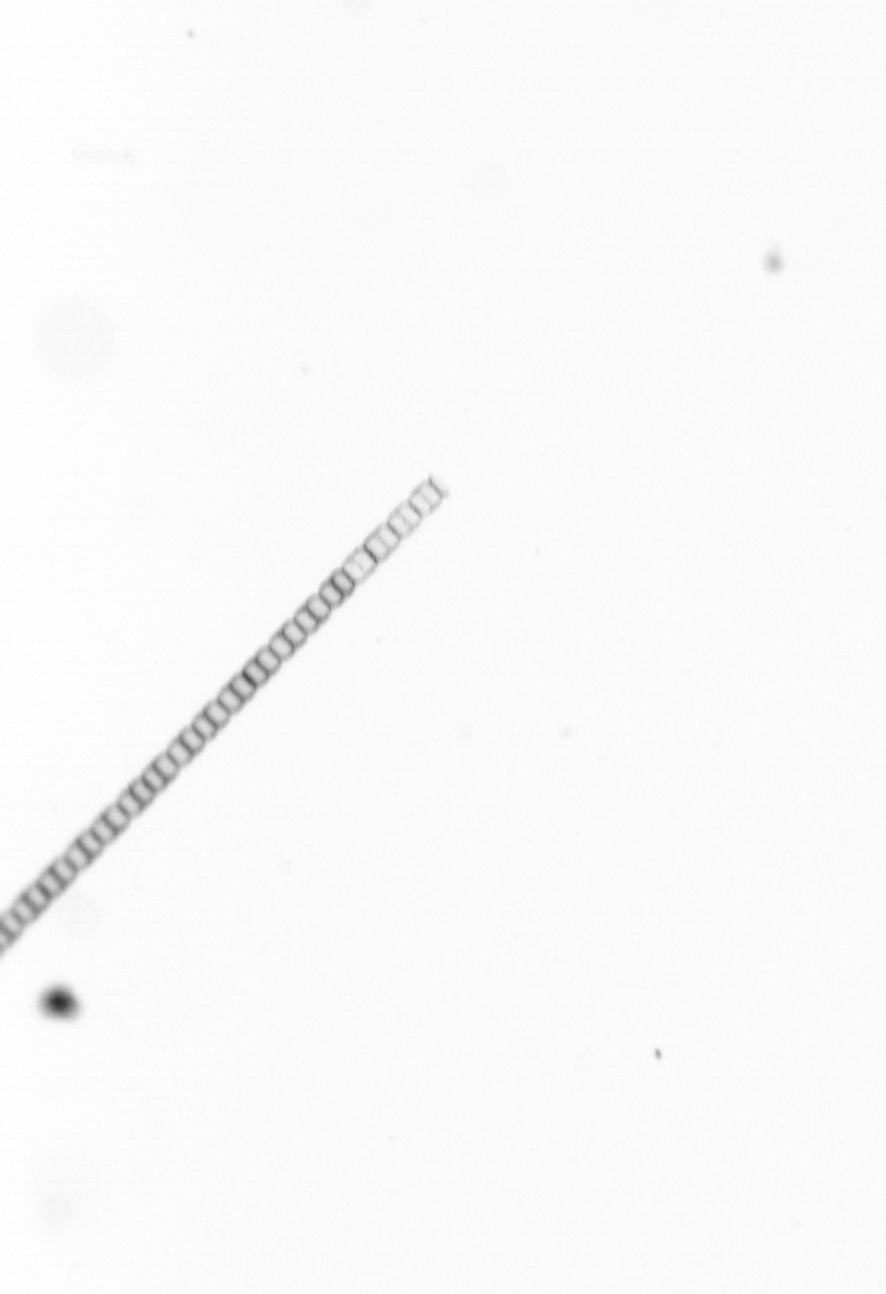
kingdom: Chromista
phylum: Ochrophyta
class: Bacillariophyceae
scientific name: Bacillariophyceae
